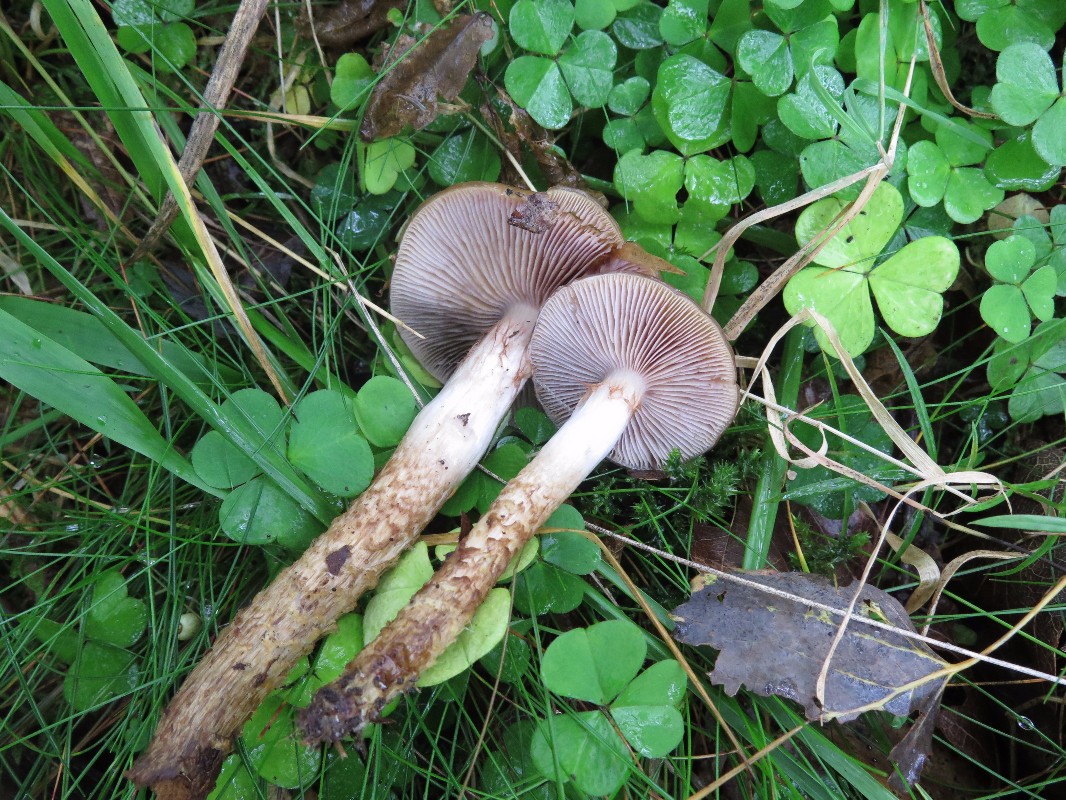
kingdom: Fungi
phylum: Basidiomycota
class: Agaricomycetes
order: Agaricales
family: Cortinariaceae
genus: Cortinarius
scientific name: Cortinarius trivialis
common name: brunslimet slørhat
